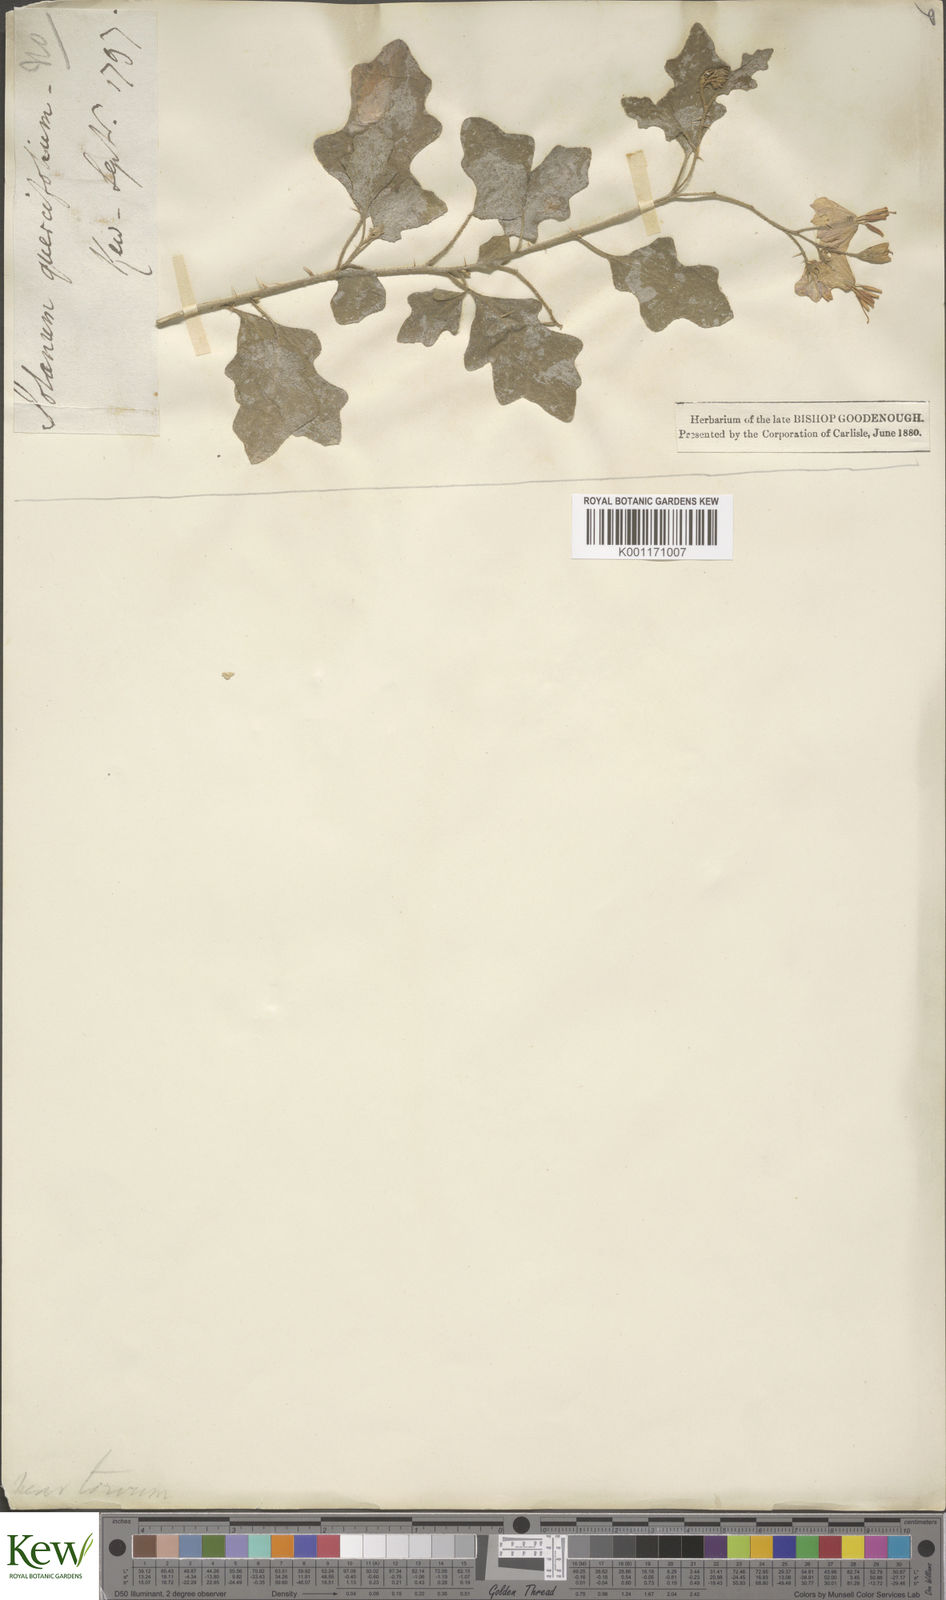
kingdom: Plantae
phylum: Tracheophyta
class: Magnoliopsida
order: Solanales
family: Solanaceae
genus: Solanum
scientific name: Solanum
